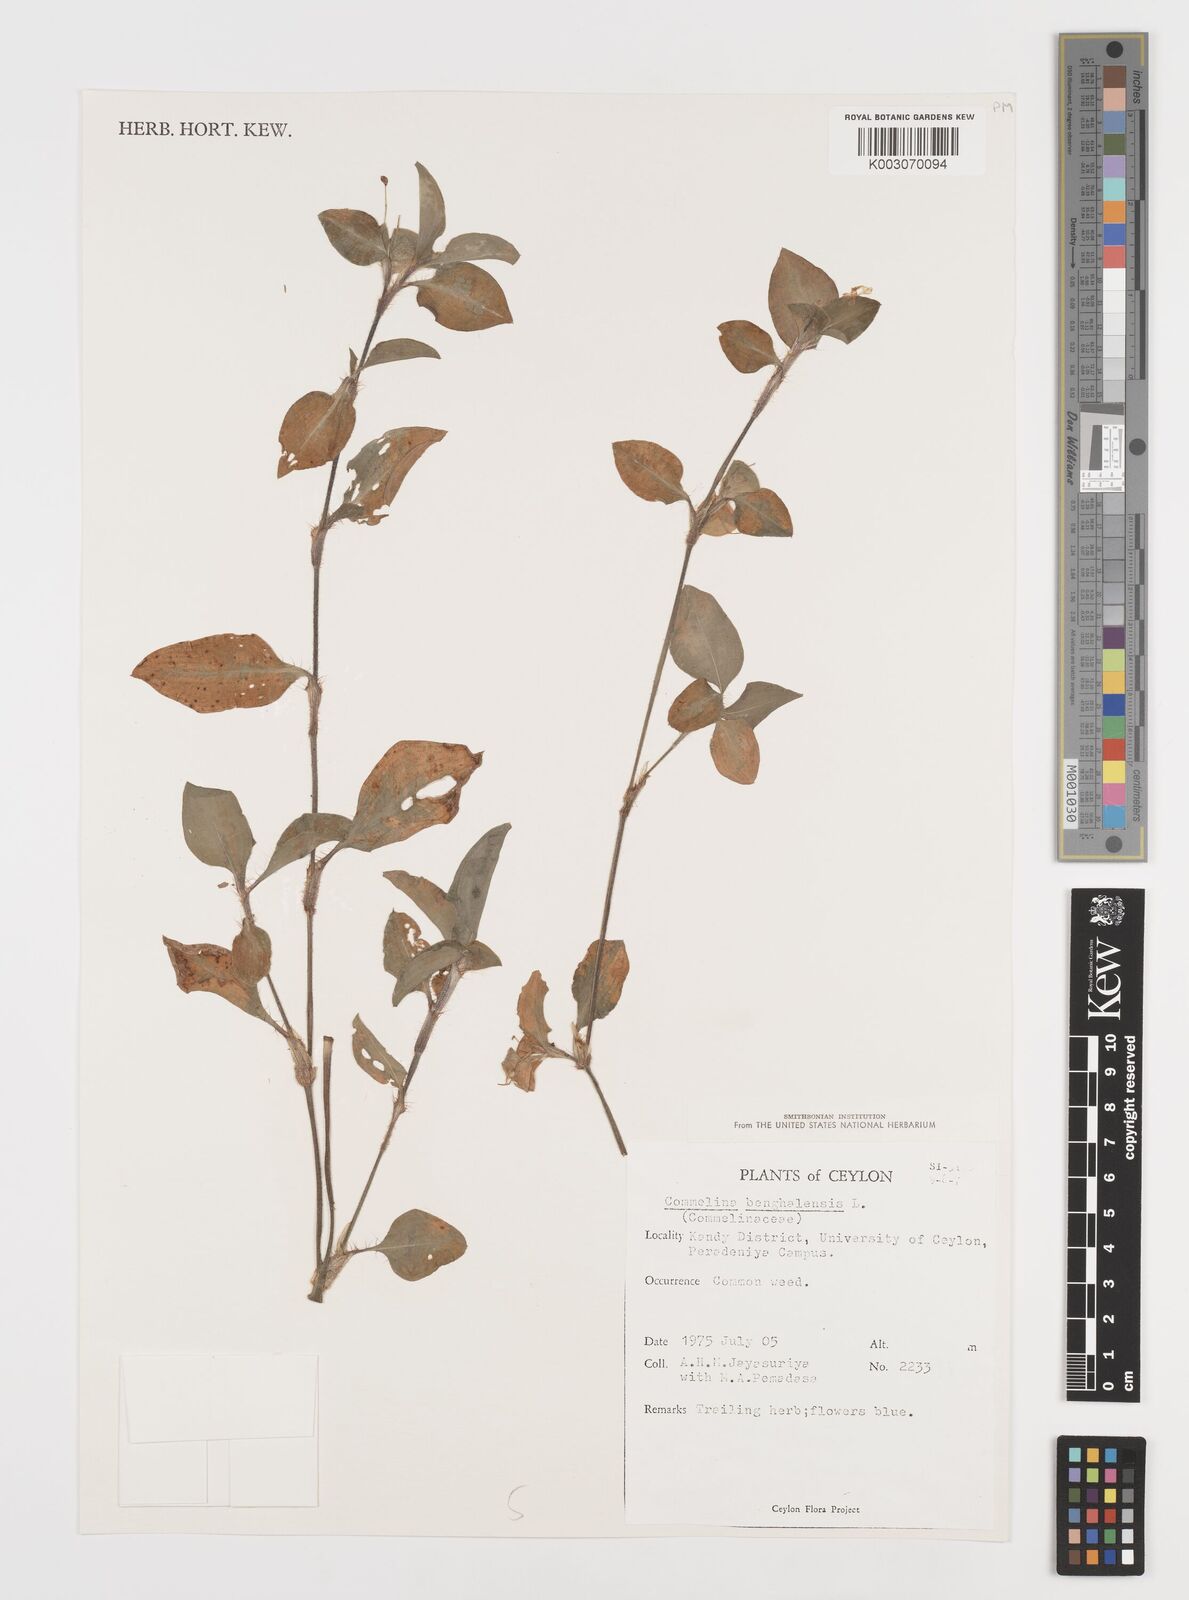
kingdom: Plantae
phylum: Tracheophyta
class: Liliopsida
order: Commelinales
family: Commelinaceae
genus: Commelina
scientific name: Commelina benghalensis
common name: Jio
